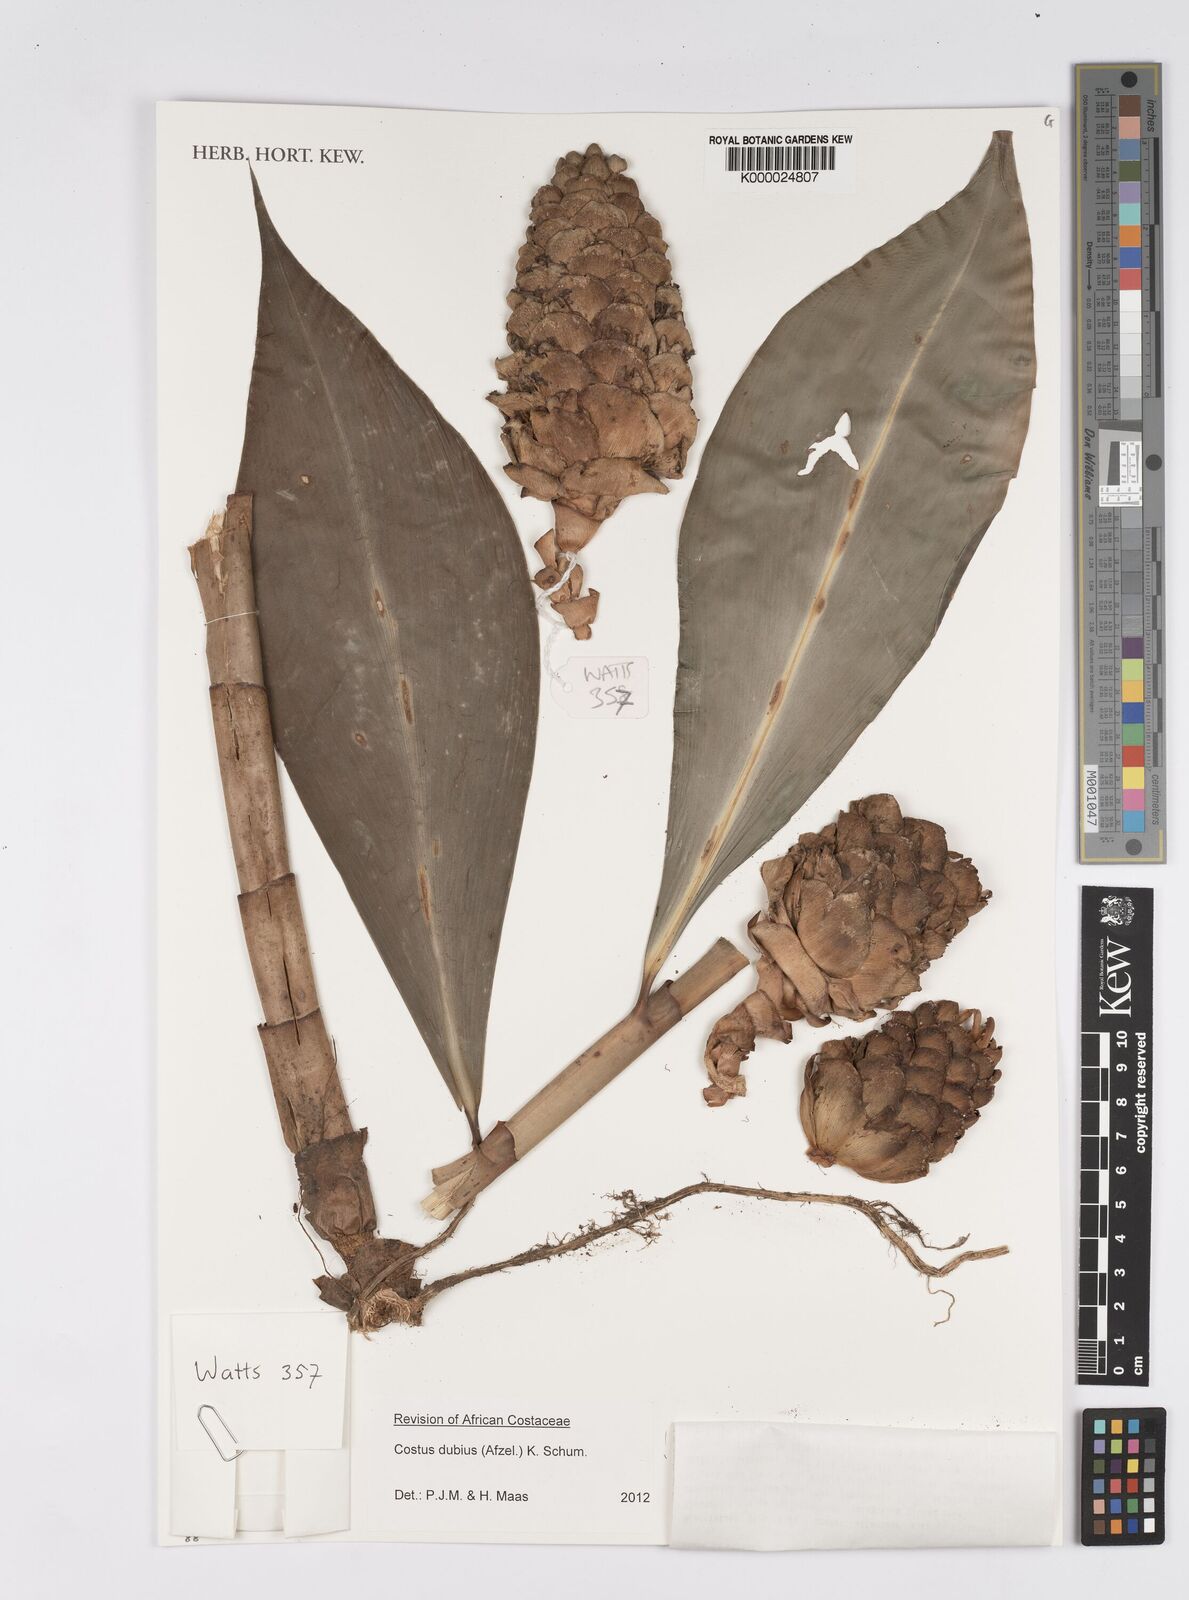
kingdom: Plantae
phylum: Tracheophyta
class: Liliopsida
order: Zingiberales
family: Costaceae
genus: Costus
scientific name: Costus dubius
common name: Costus
